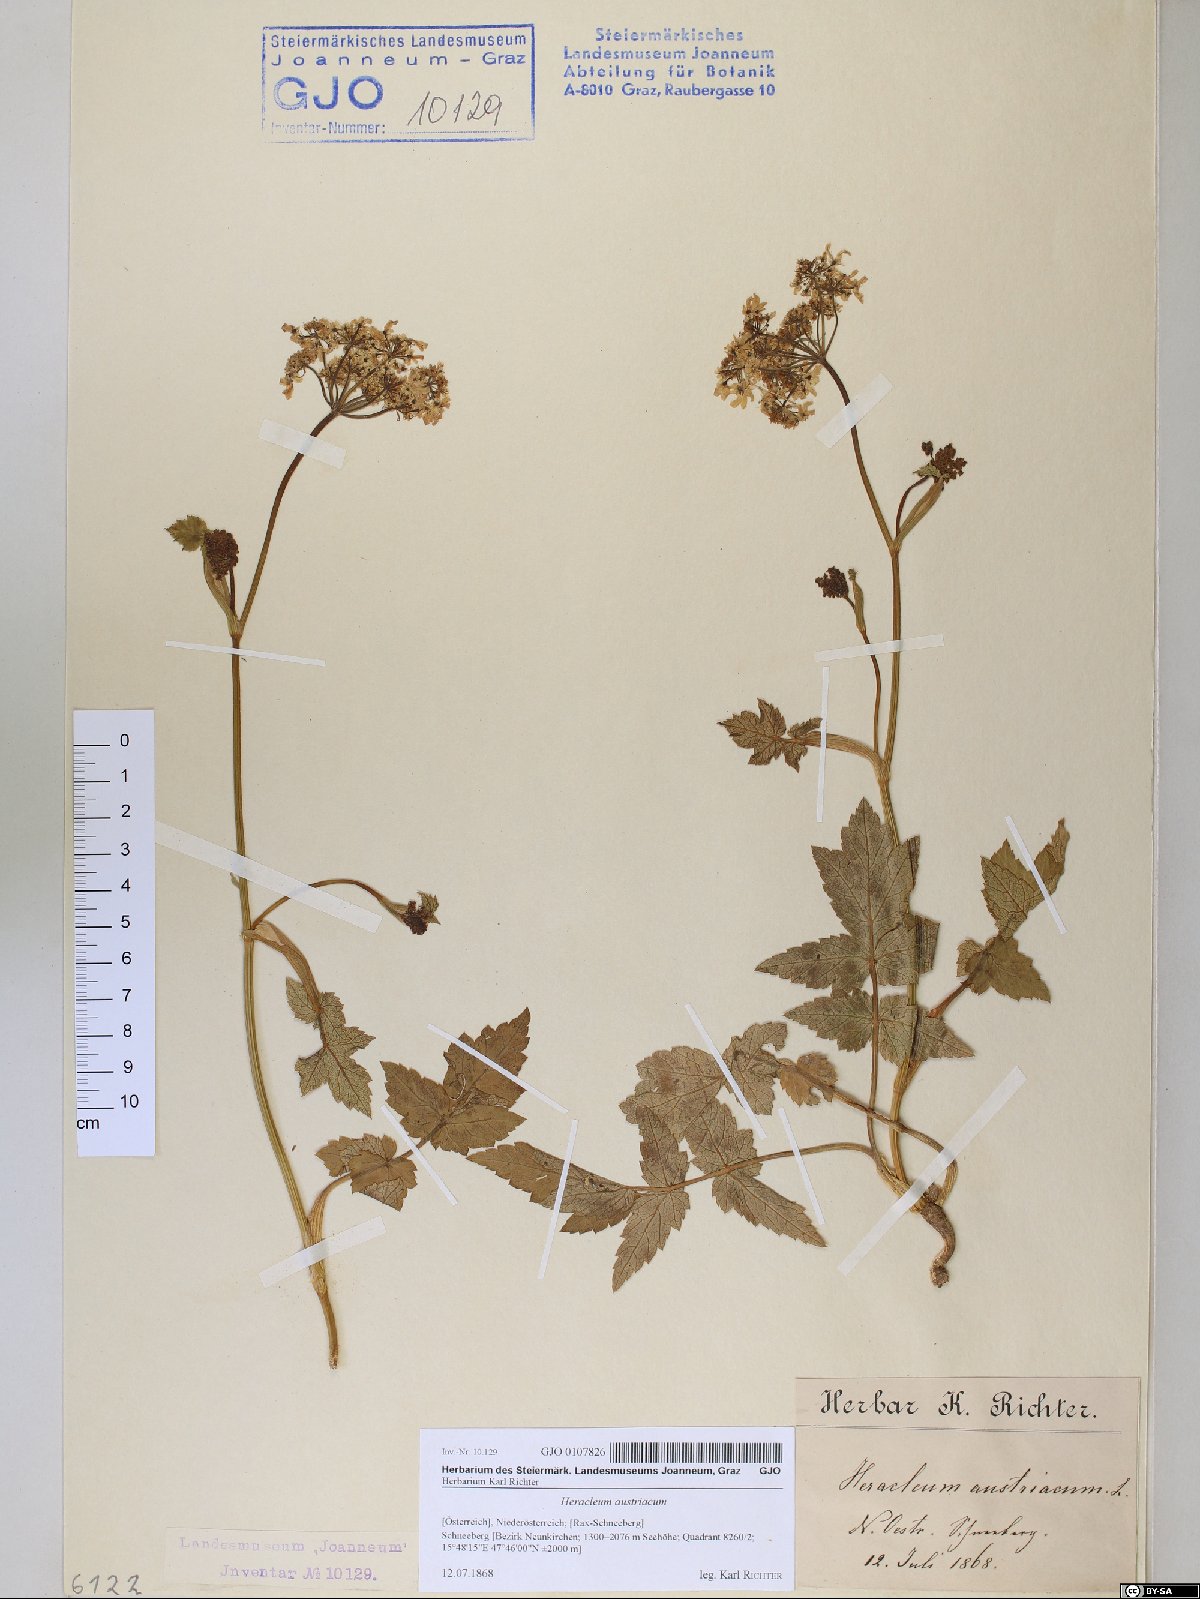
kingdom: Plantae
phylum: Tracheophyta
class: Magnoliopsida
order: Apiales
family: Apiaceae
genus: Heracleum
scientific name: Heracleum austriacum
